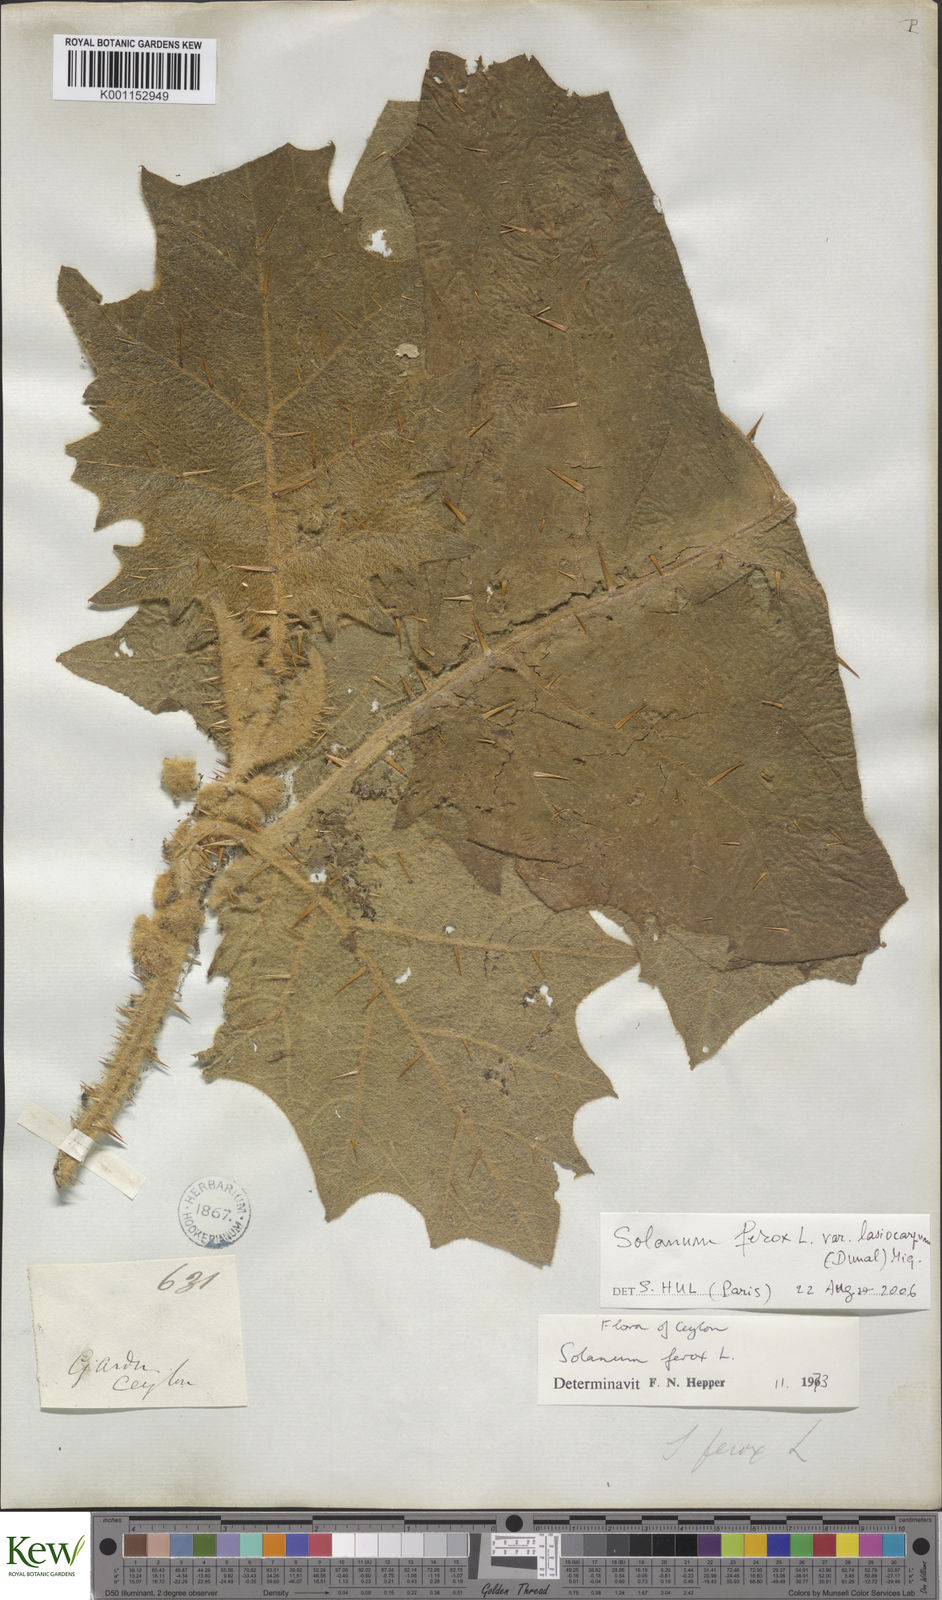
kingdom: Plantae
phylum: Tracheophyta
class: Magnoliopsida
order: Solanales
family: Solanaceae
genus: Solanum
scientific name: Solanum
